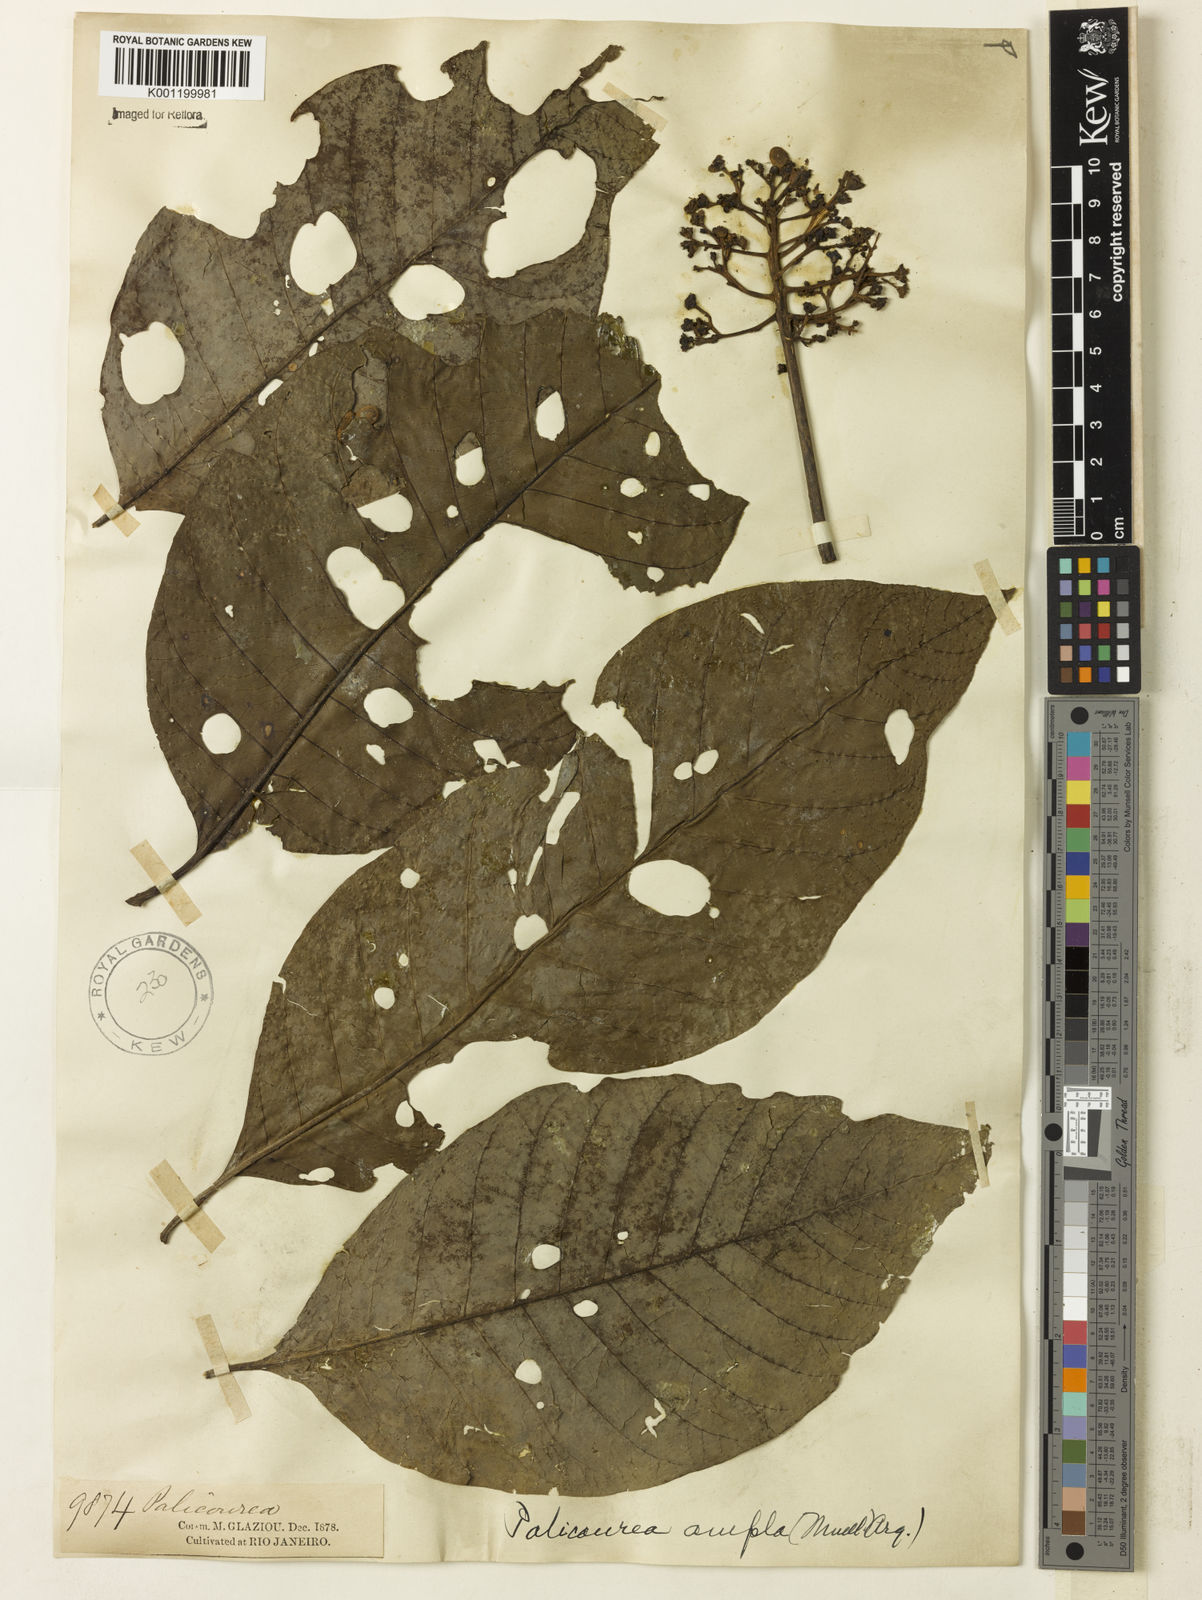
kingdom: Plantae
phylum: Tracheophyta
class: Magnoliopsida
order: Gentianales
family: Rubiaceae
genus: Palicourea
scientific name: Palicourea
